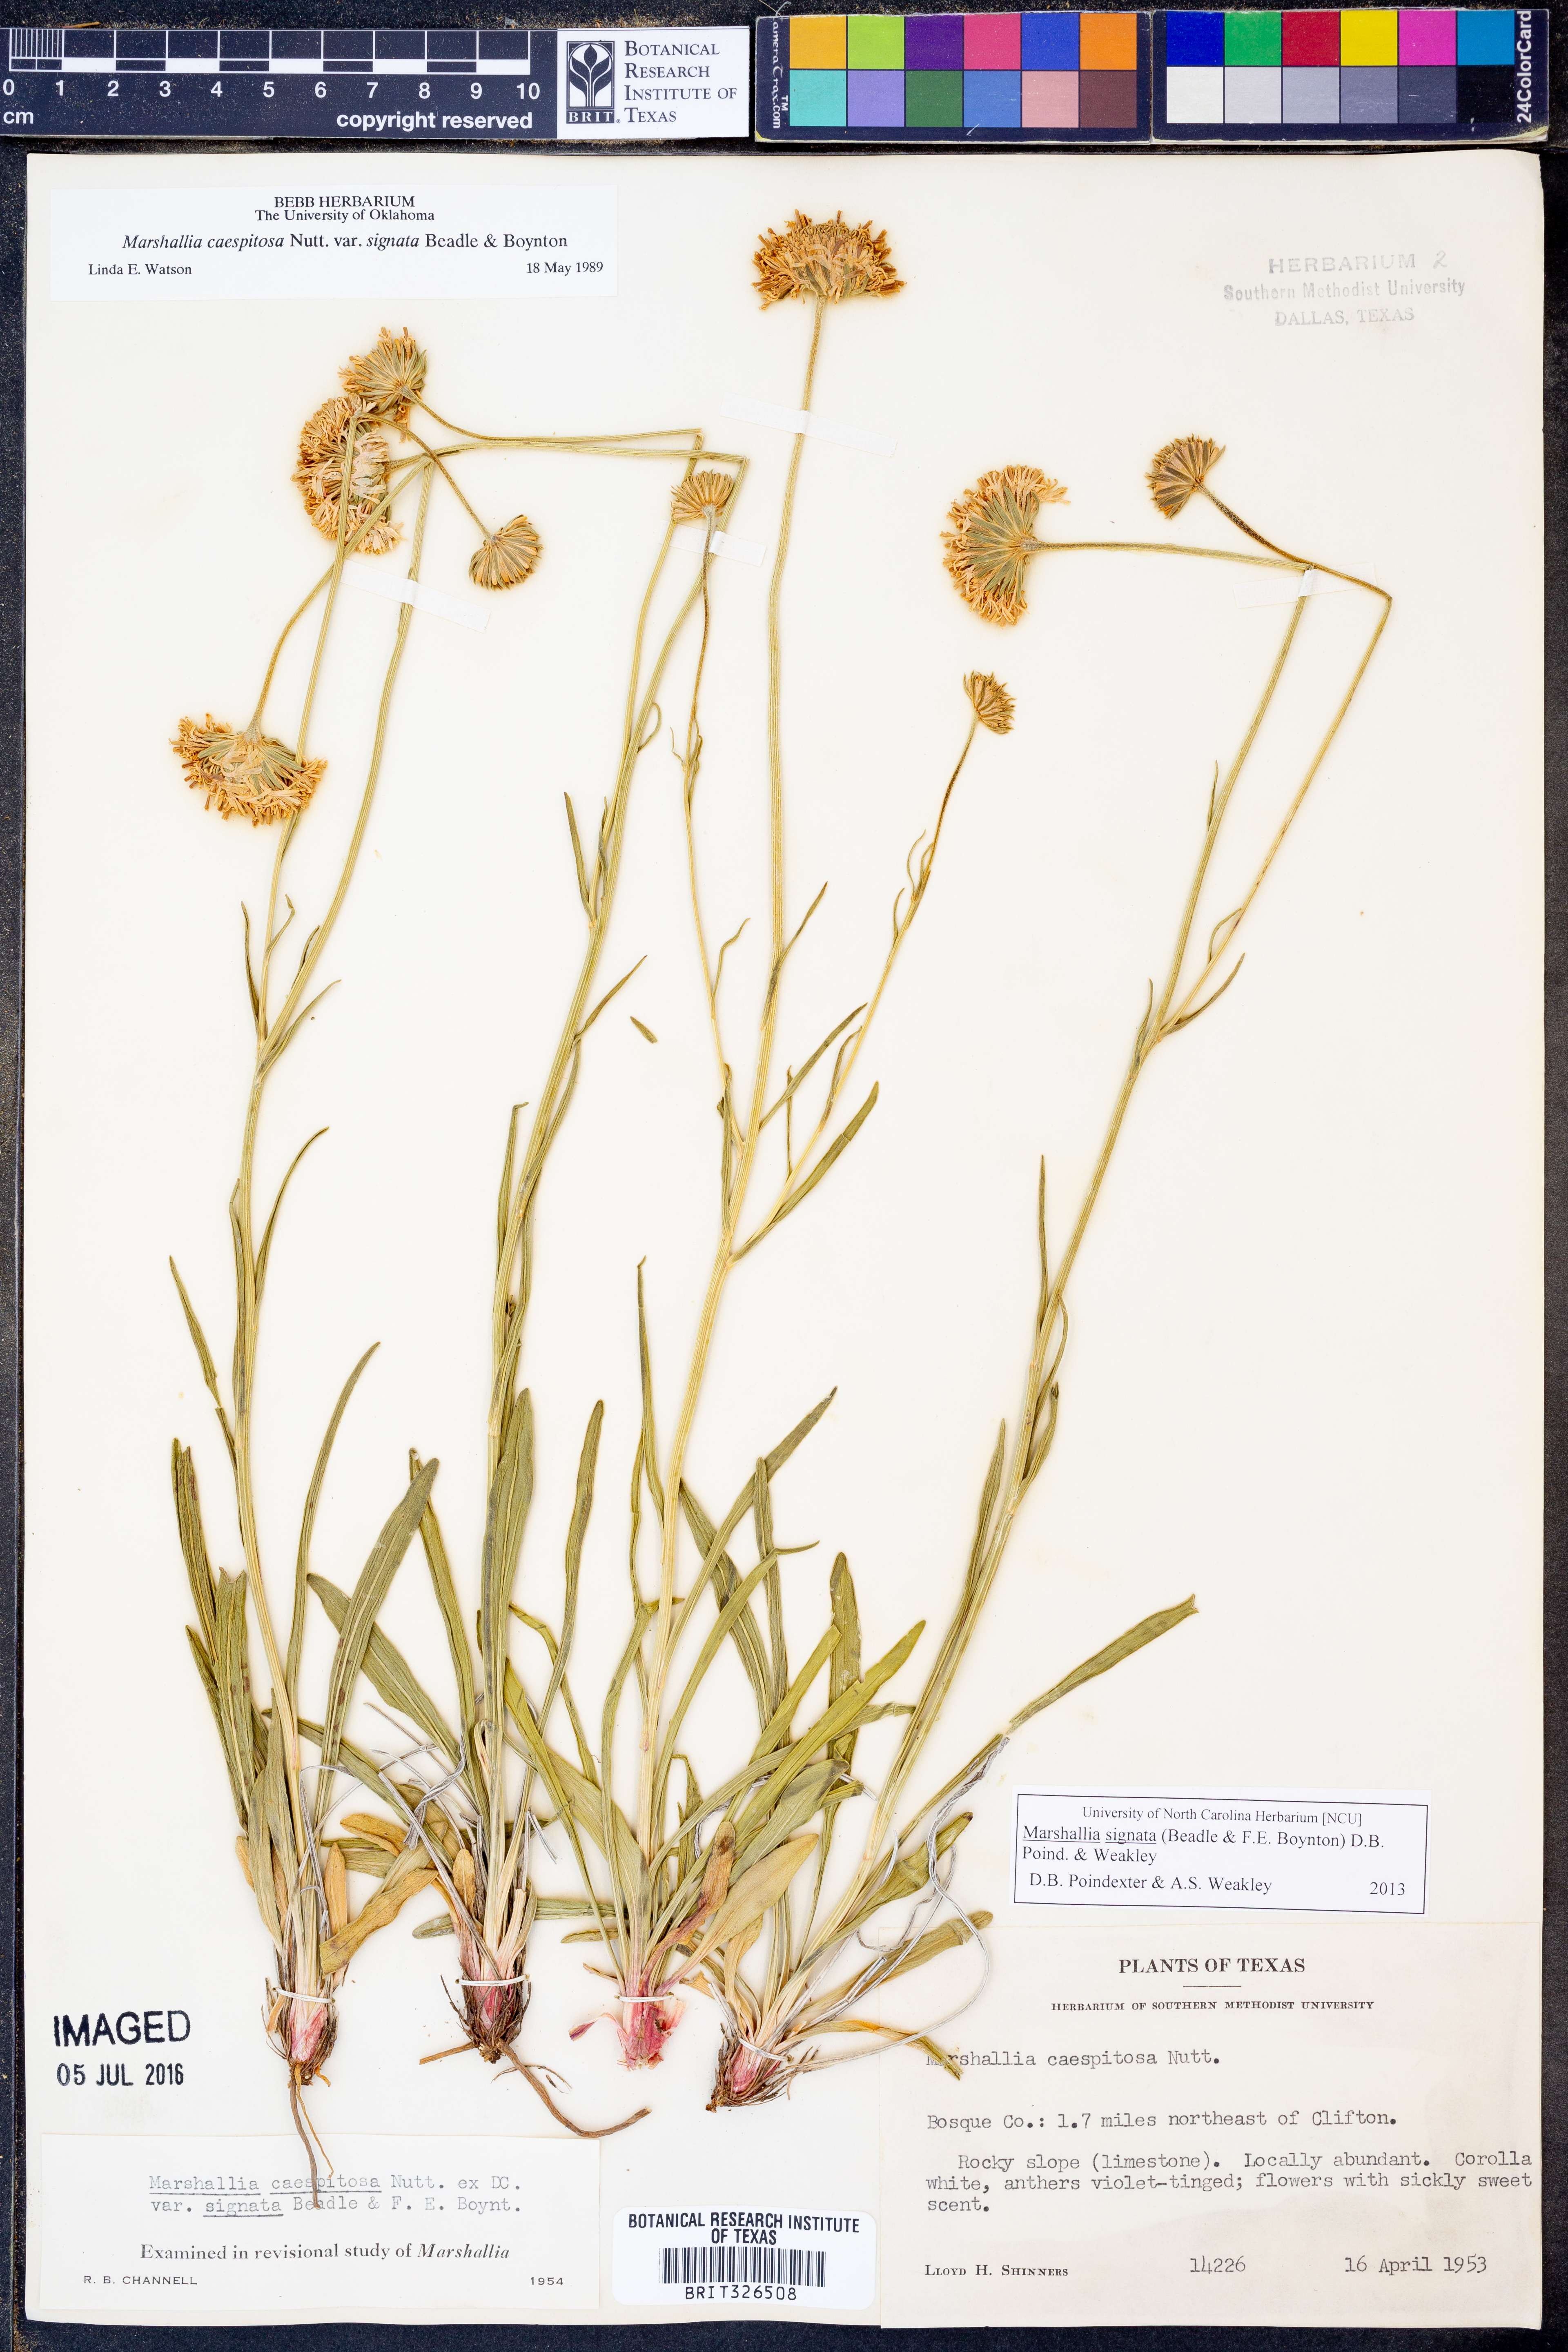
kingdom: Plantae
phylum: Tracheophyta
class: Magnoliopsida
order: Asterales
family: Asteraceae
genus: Marshallia
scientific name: Marshallia
